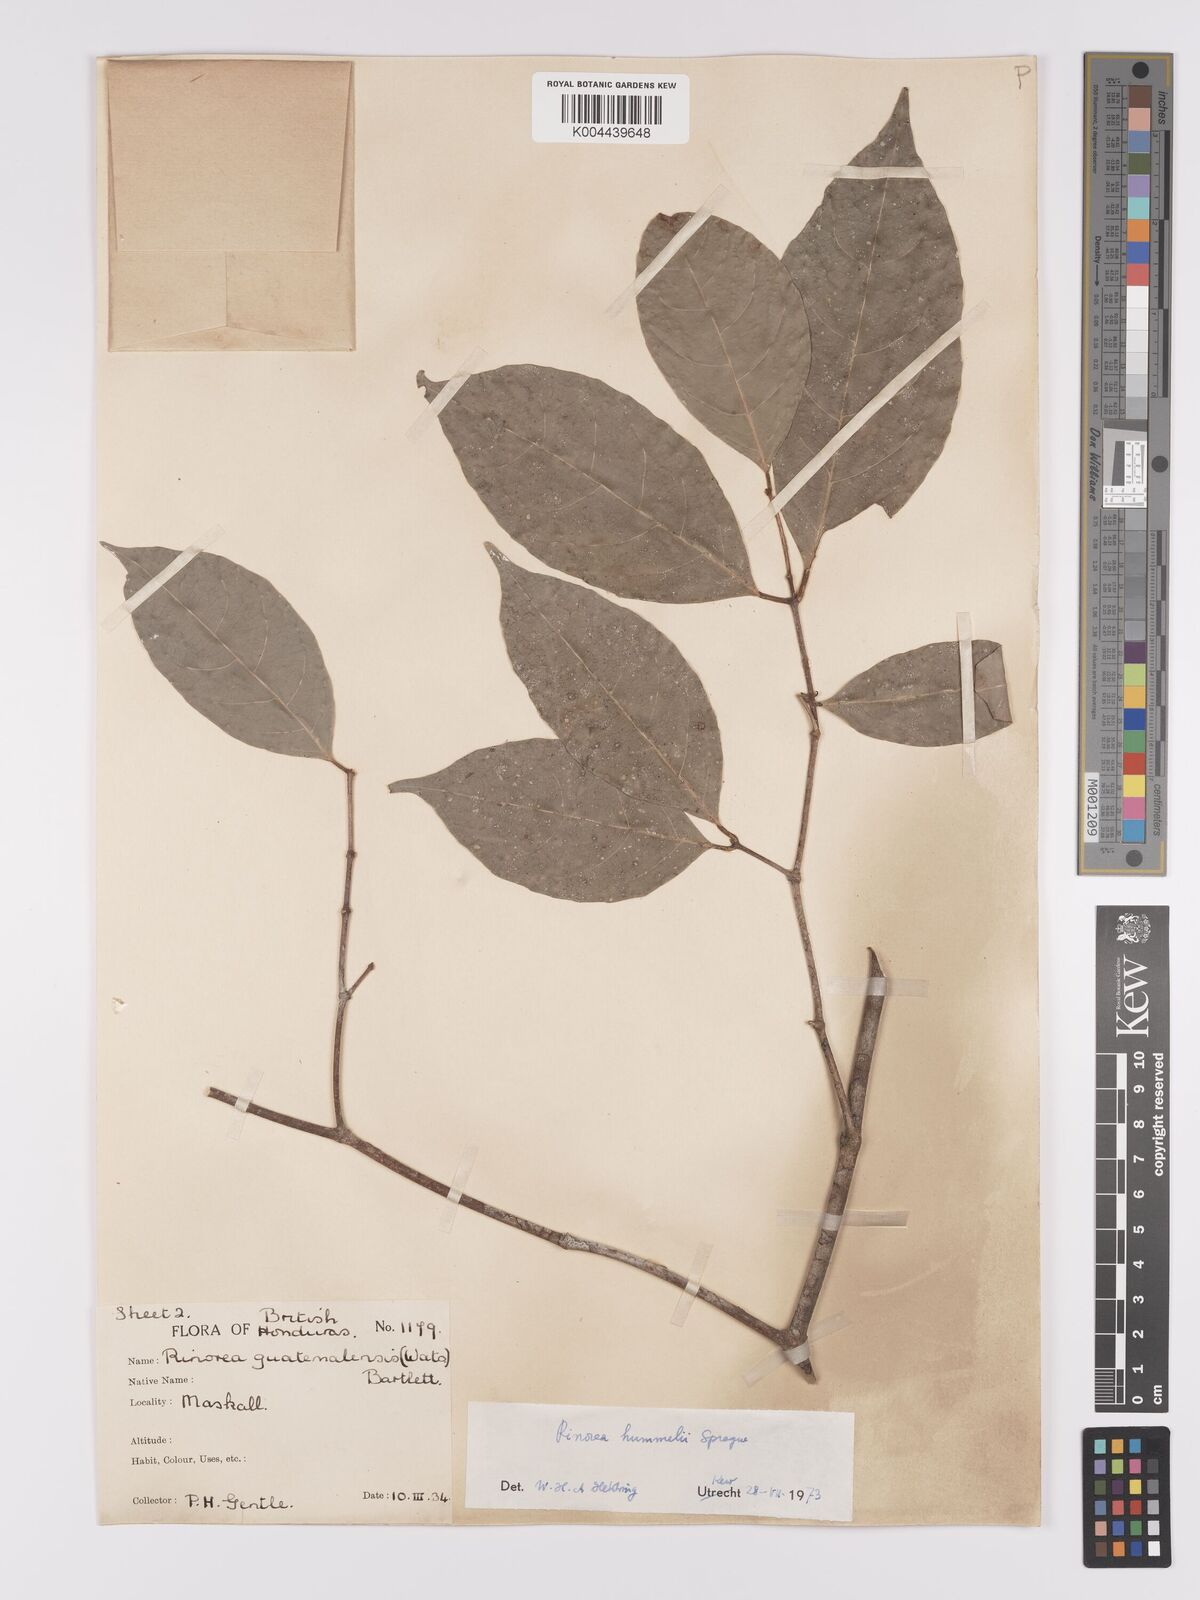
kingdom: Plantae
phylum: Tracheophyta
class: Magnoliopsida
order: Malpighiales
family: Violaceae
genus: Rinorea
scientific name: Rinorea hummelii
